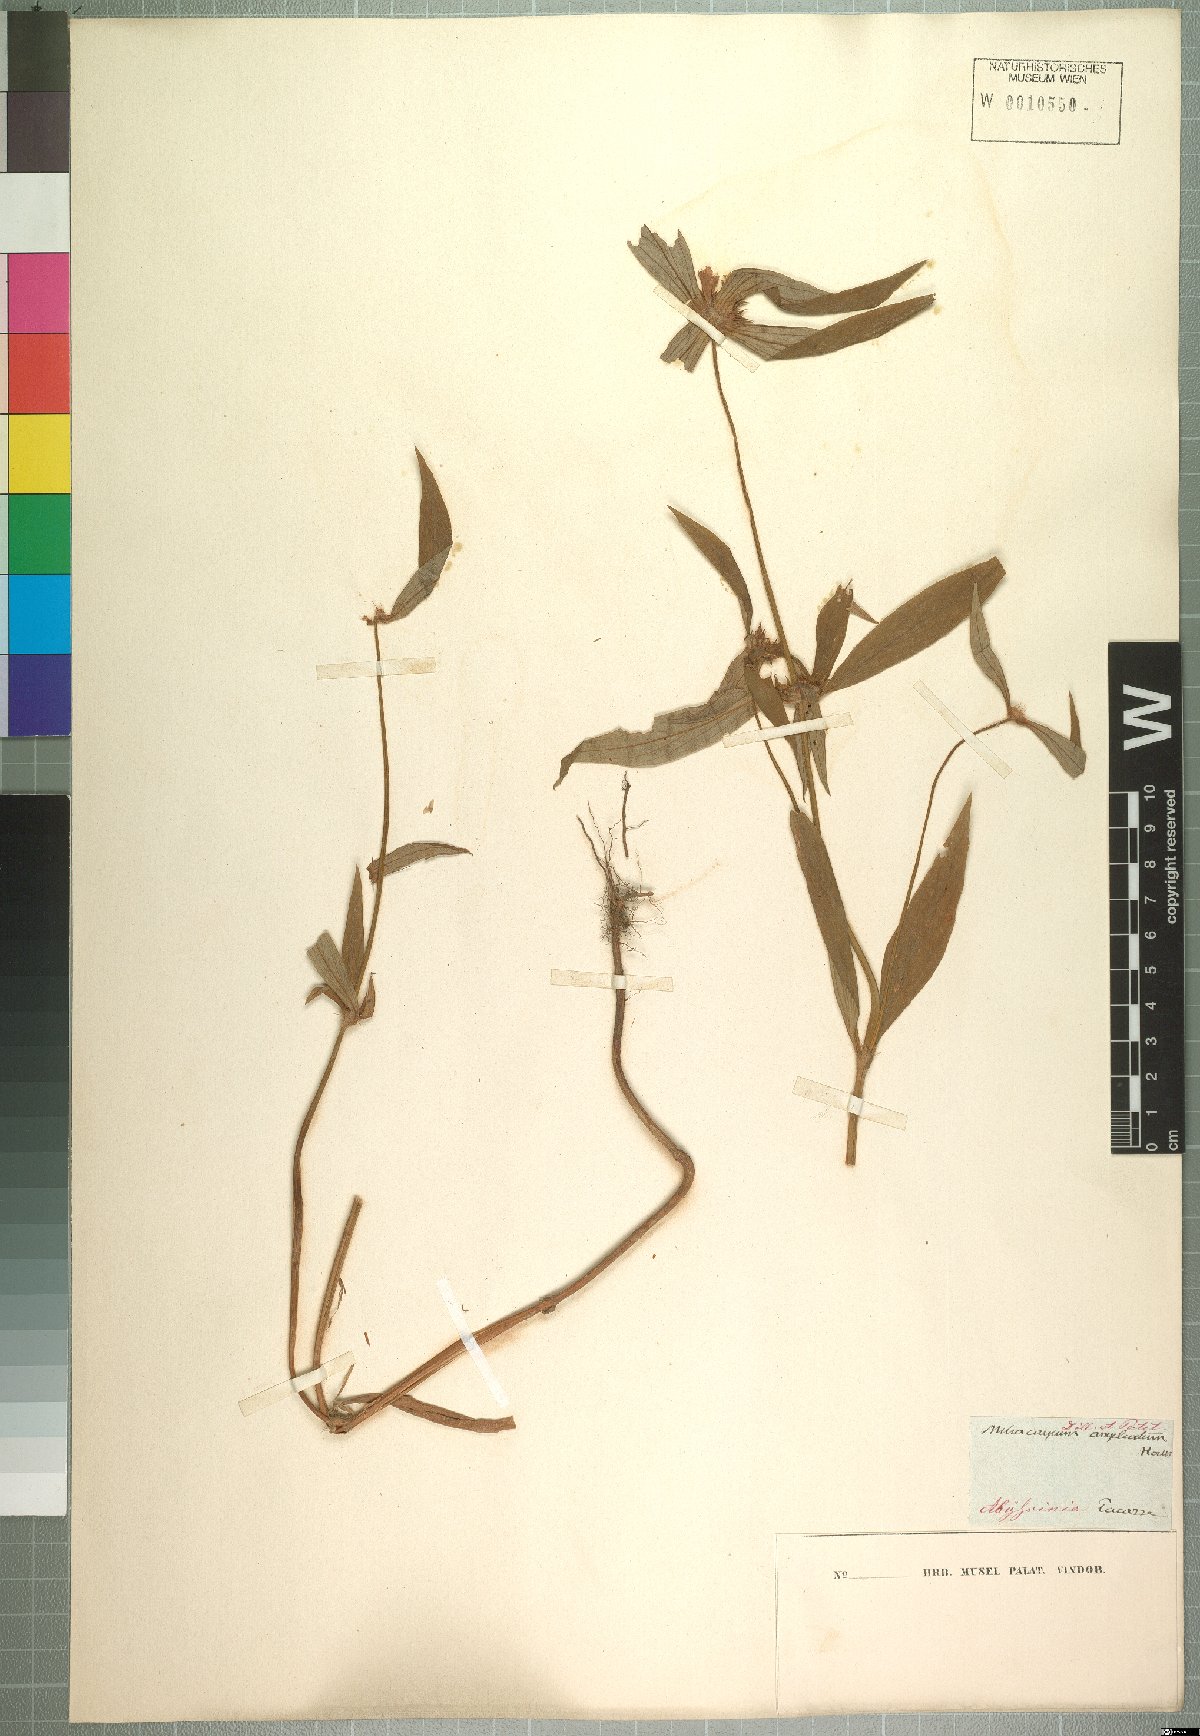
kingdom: Plantae
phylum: Tracheophyta
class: Magnoliopsida
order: Gentianales
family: Rubiaceae
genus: Spermacoce
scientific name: Spermacoce sphaerostigma
